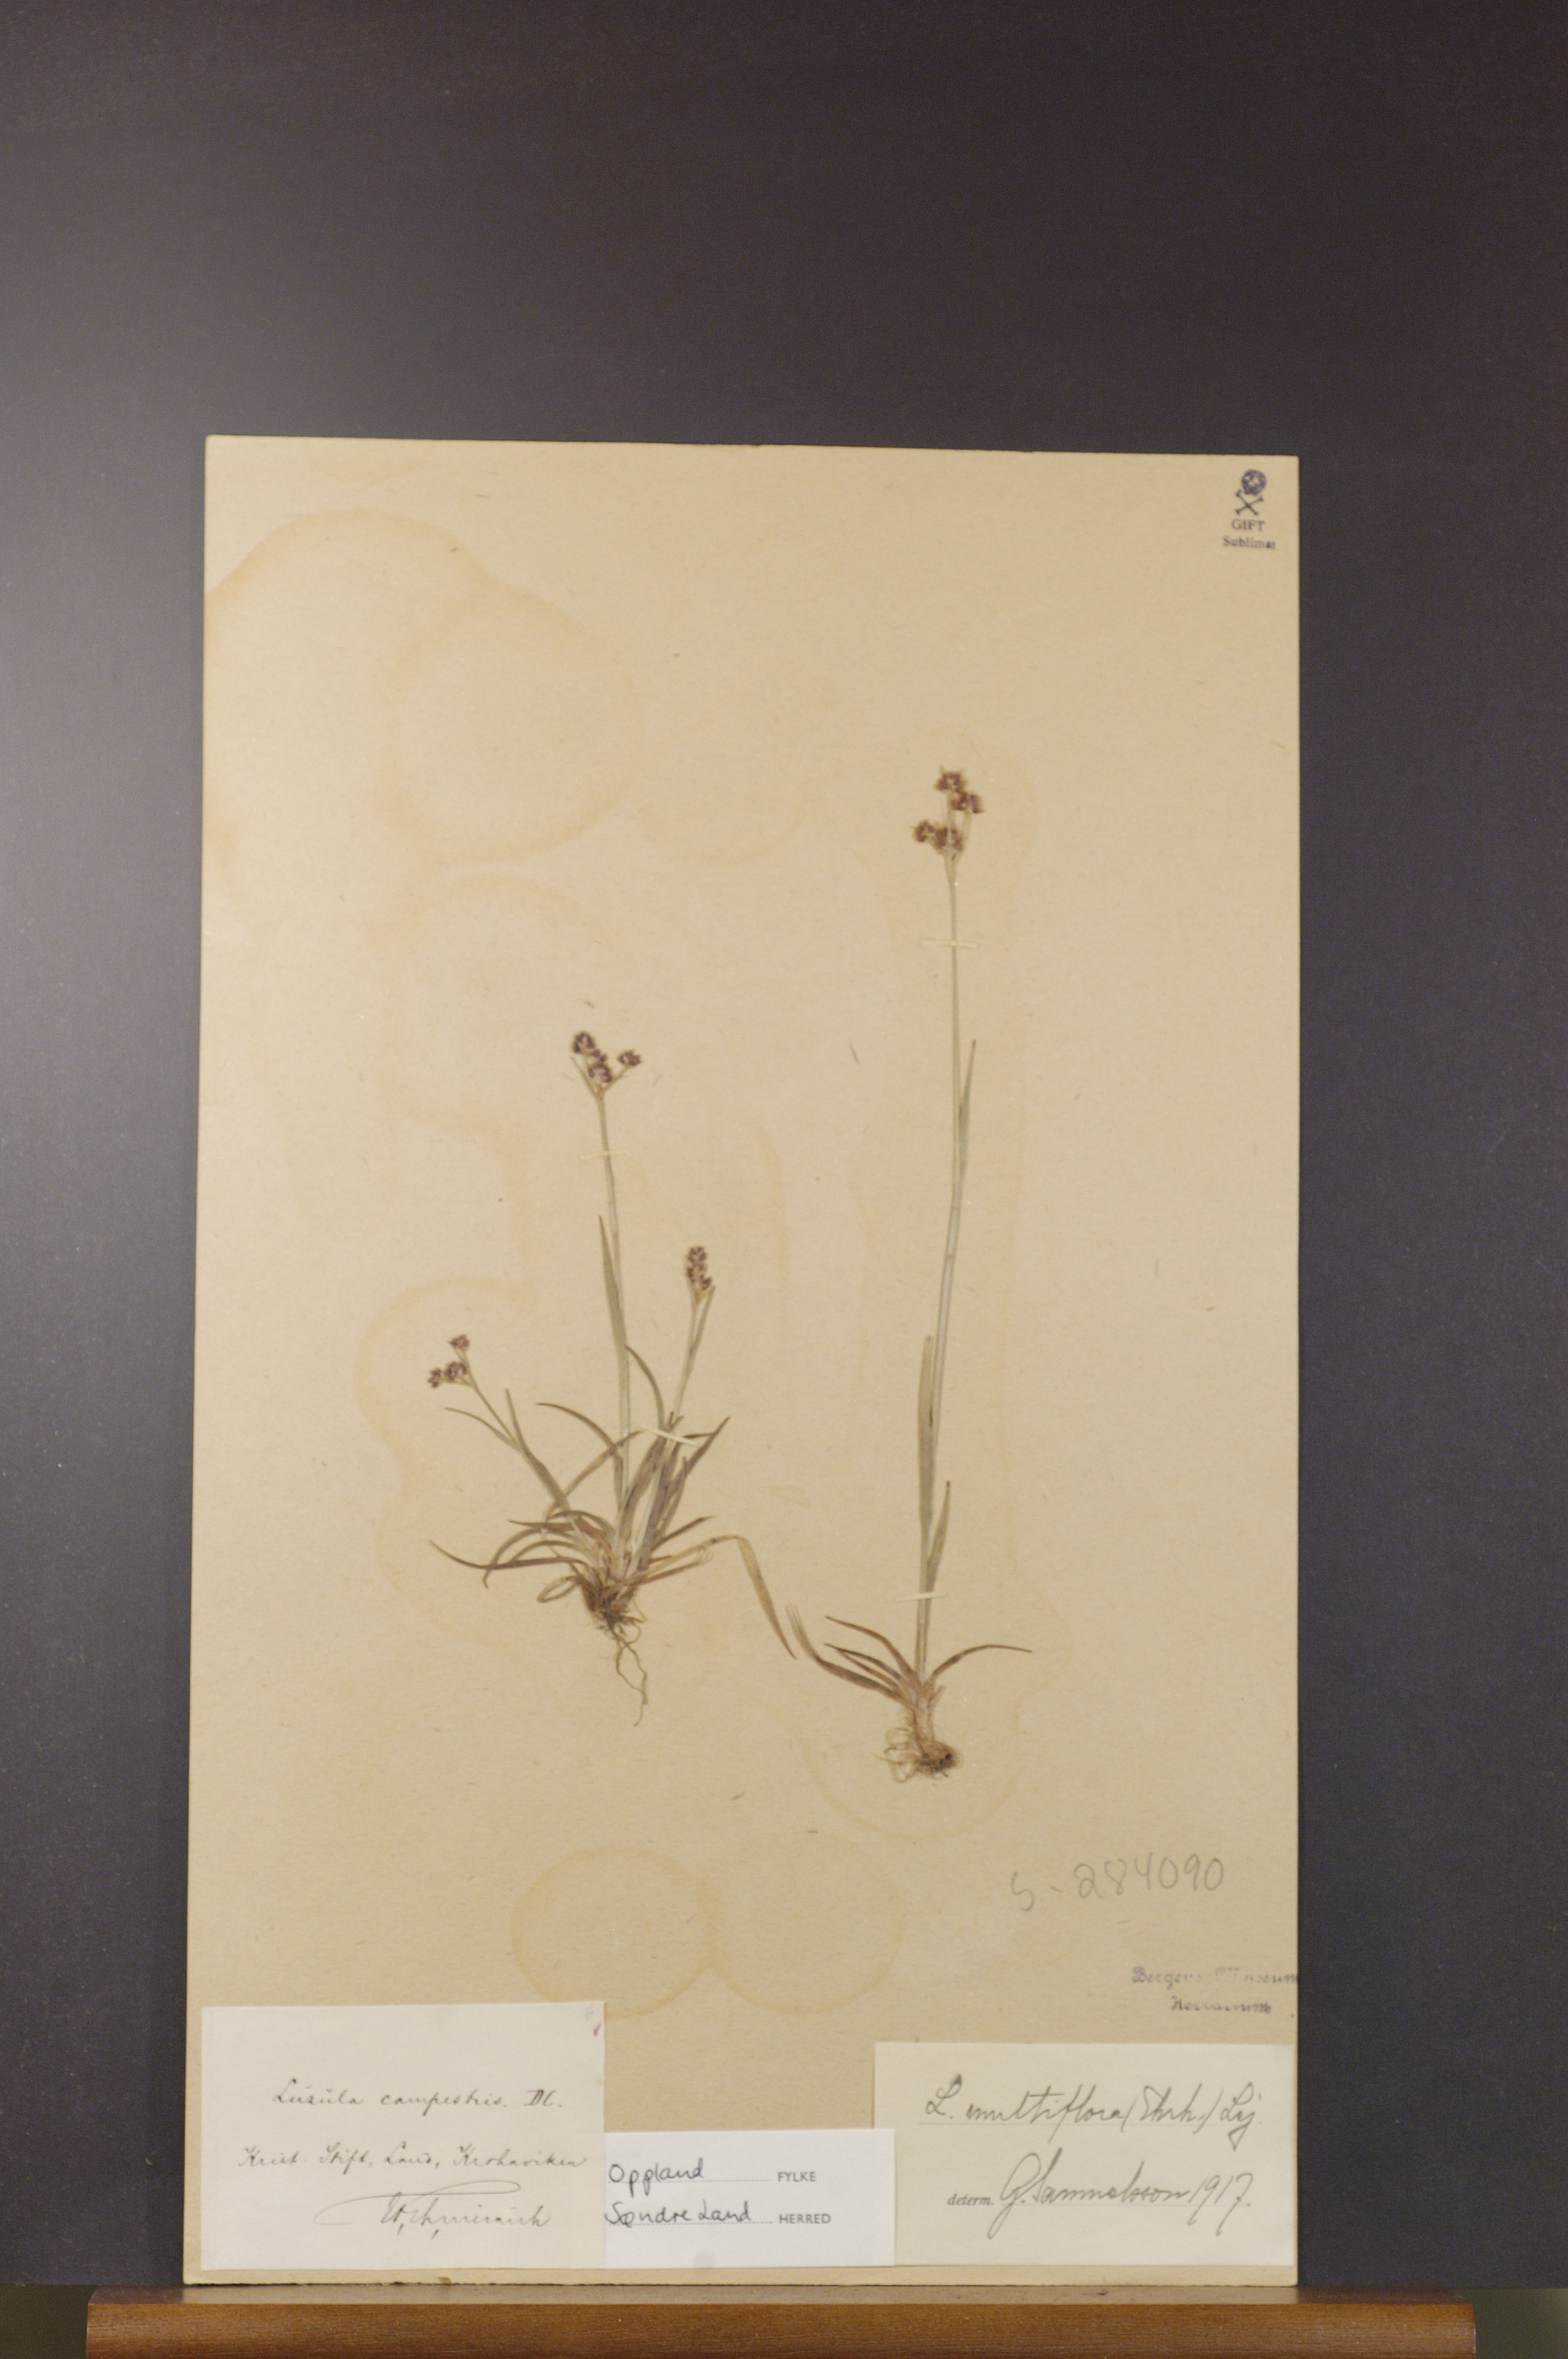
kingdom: Plantae
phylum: Tracheophyta
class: Liliopsida
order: Poales
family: Juncaceae
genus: Luzula
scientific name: Luzula multiflora
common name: Heath wood-rush
